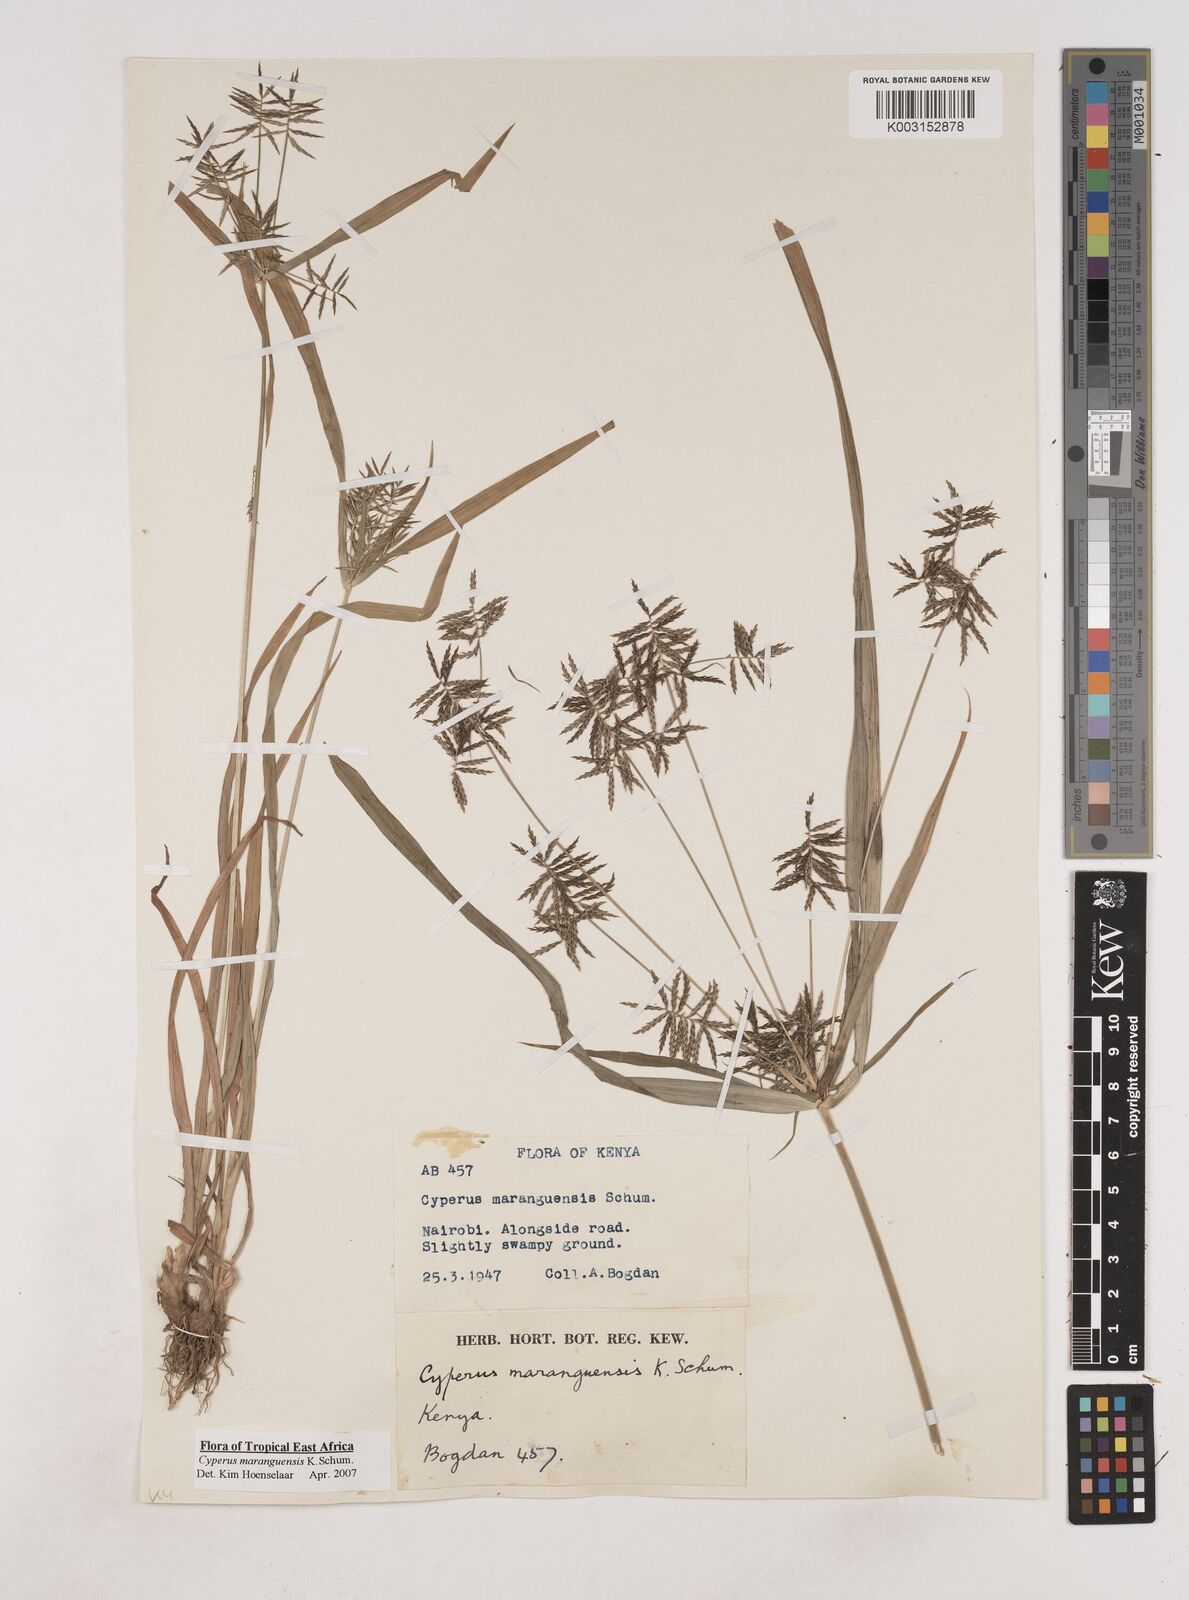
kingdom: Plantae
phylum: Tracheophyta
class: Liliopsida
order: Poales
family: Cyperaceae
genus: Cyperus
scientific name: Cyperus maranguensis
